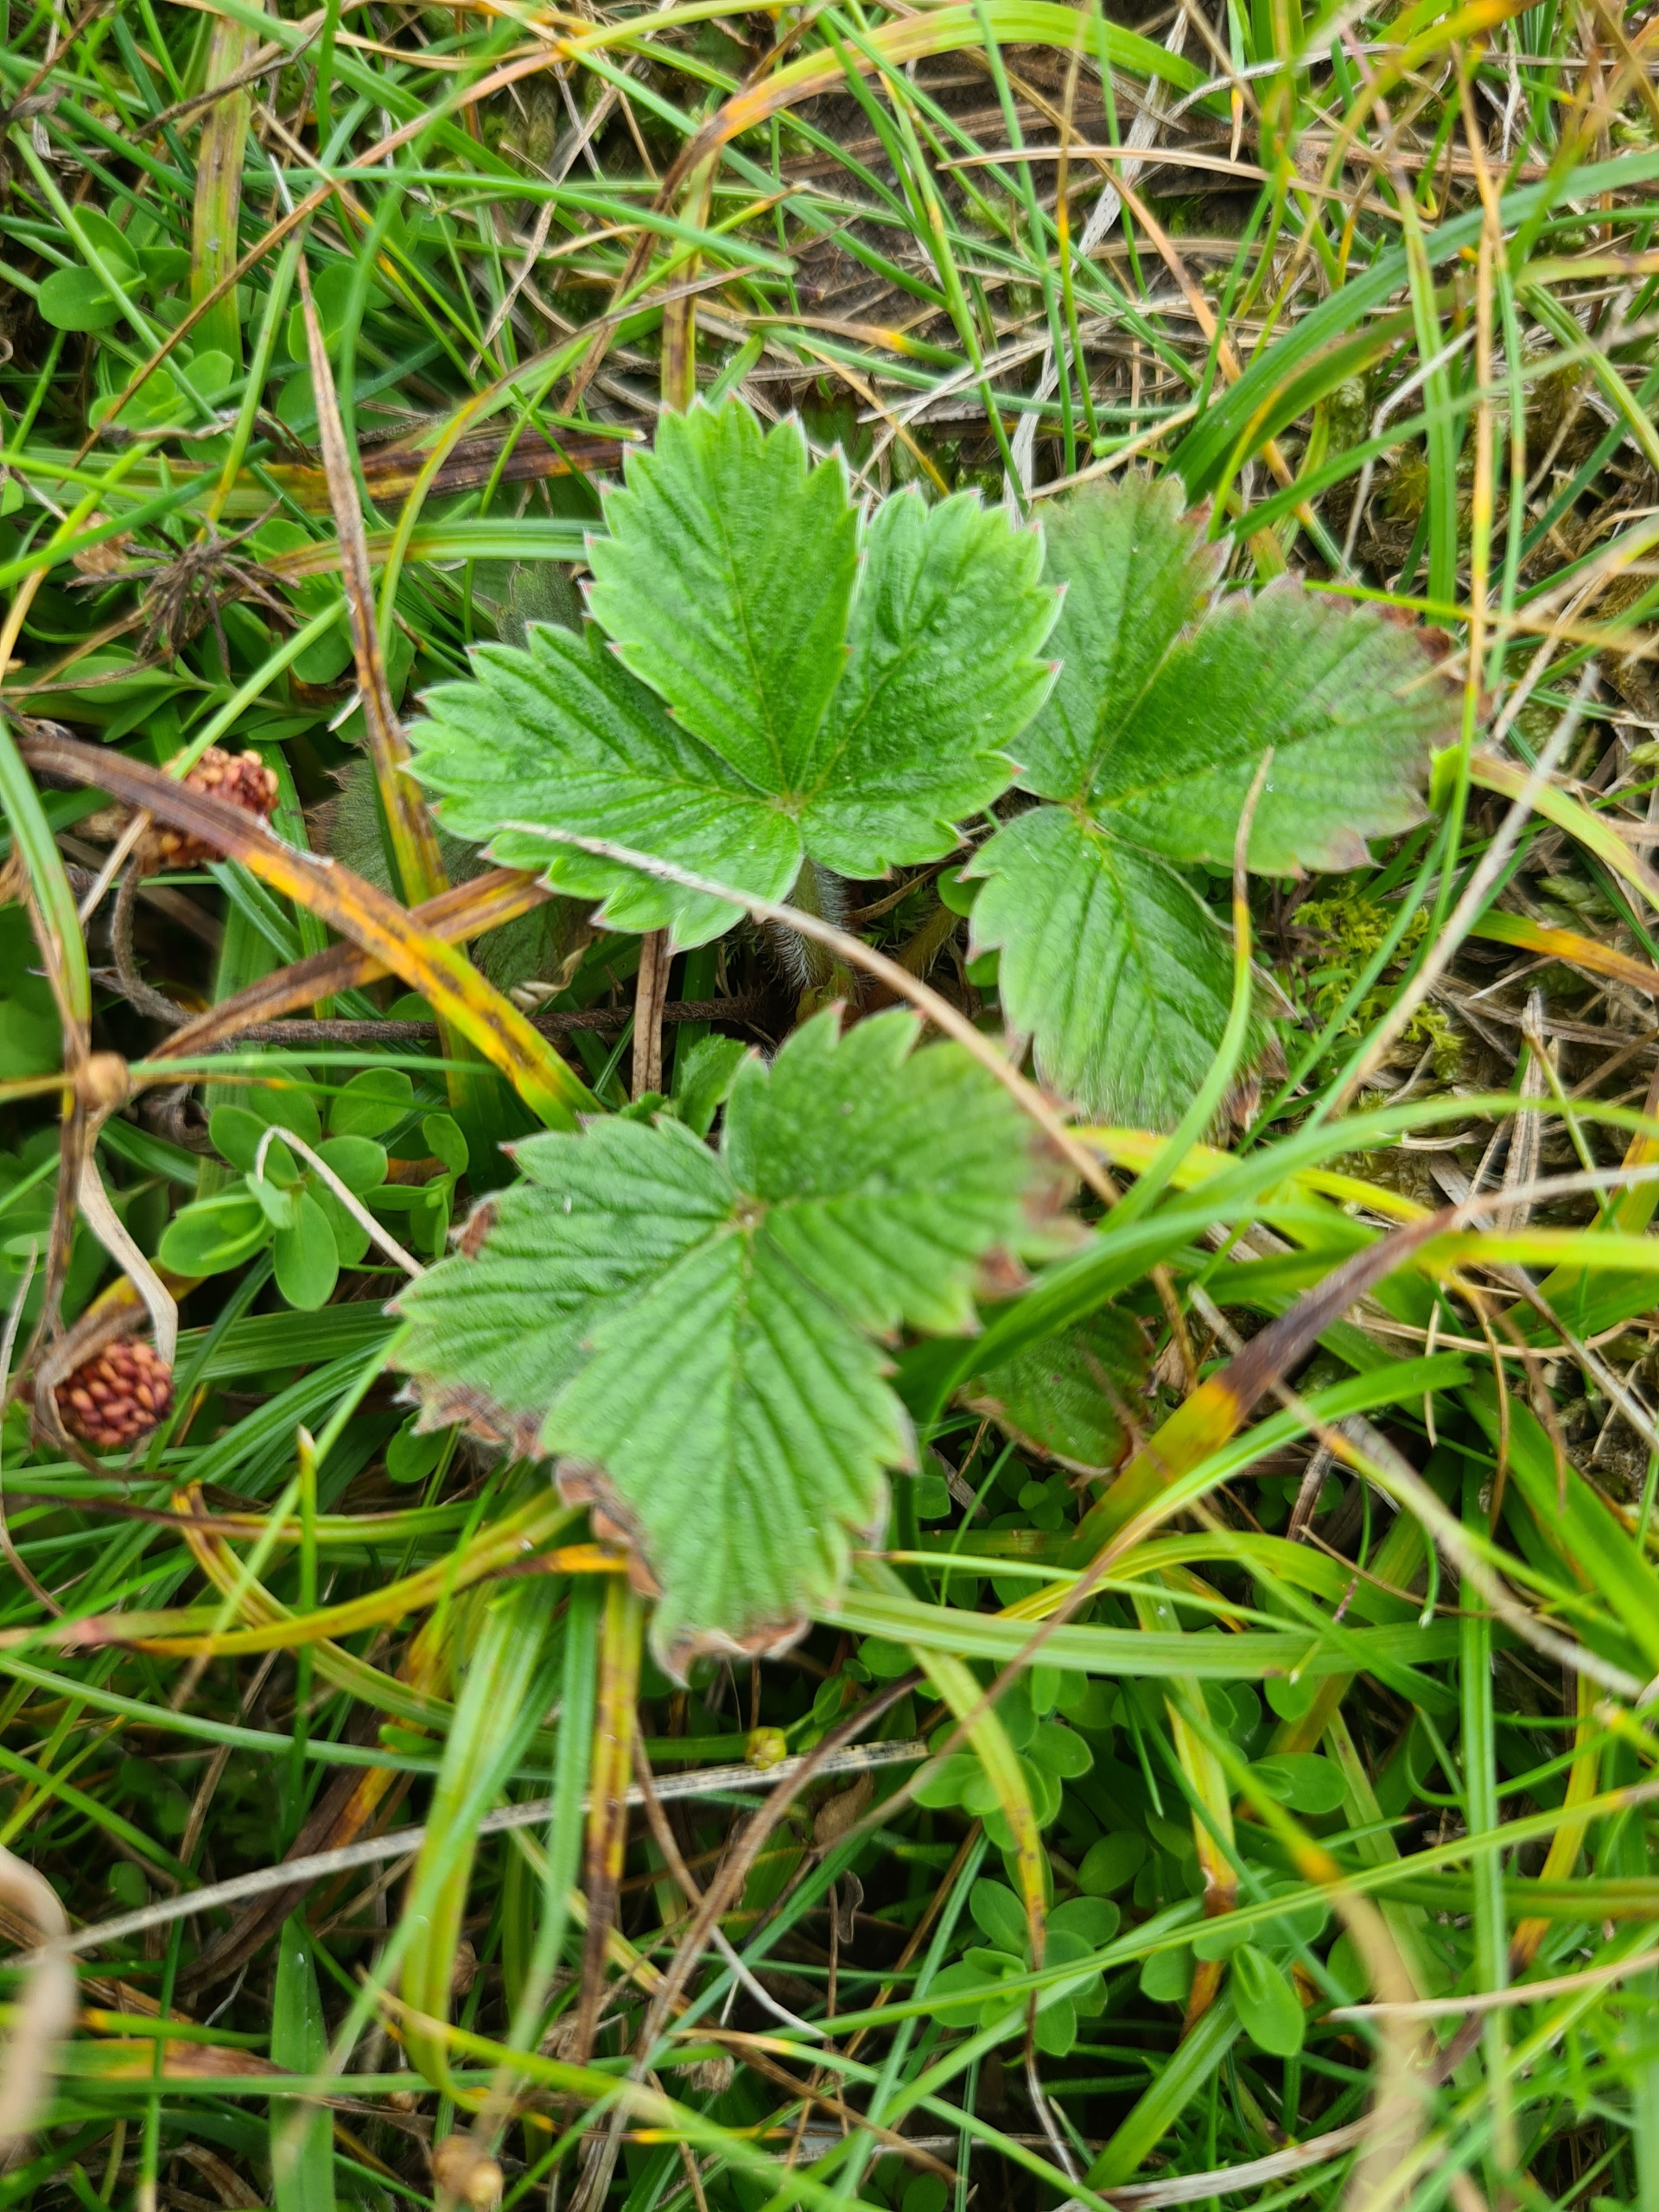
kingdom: Plantae
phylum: Tracheophyta
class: Magnoliopsida
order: Rosales
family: Rosaceae
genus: Fragaria
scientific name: Fragaria viridis
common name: Bakke-jordbær
